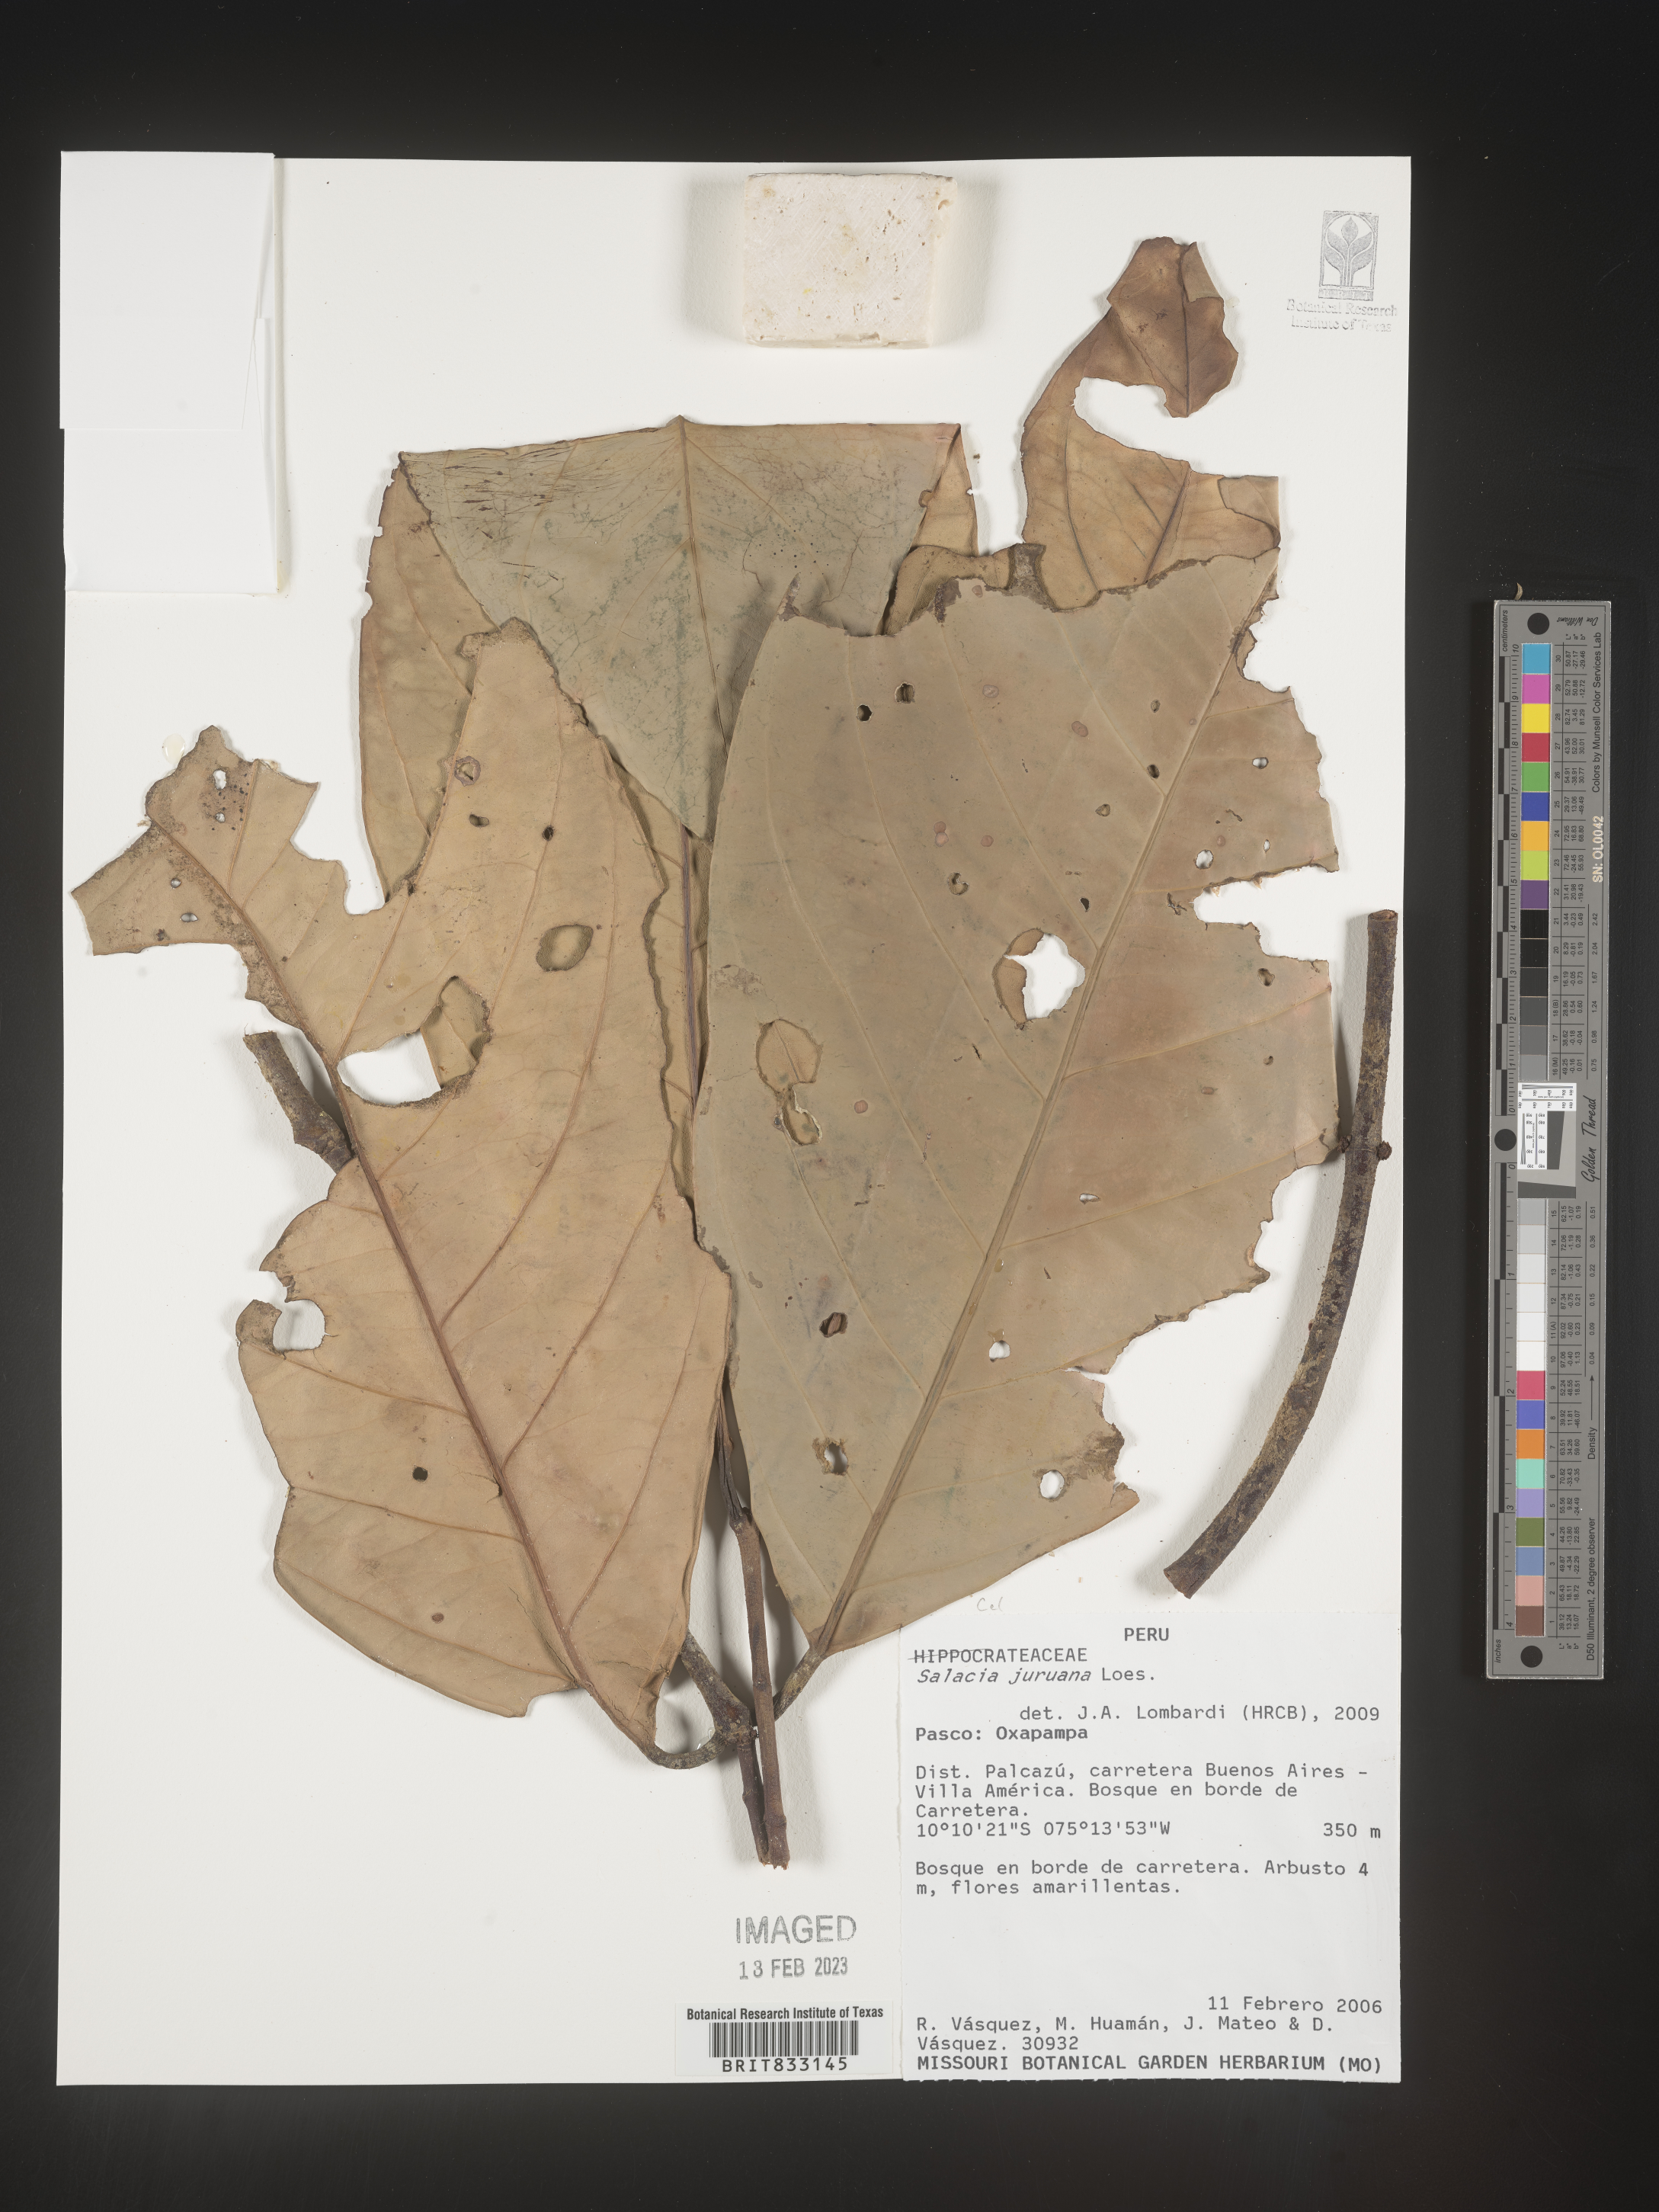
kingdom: Plantae
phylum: Tracheophyta
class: Magnoliopsida
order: Celastrales
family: Celastraceae
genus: Salacia
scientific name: Salacia juruana
